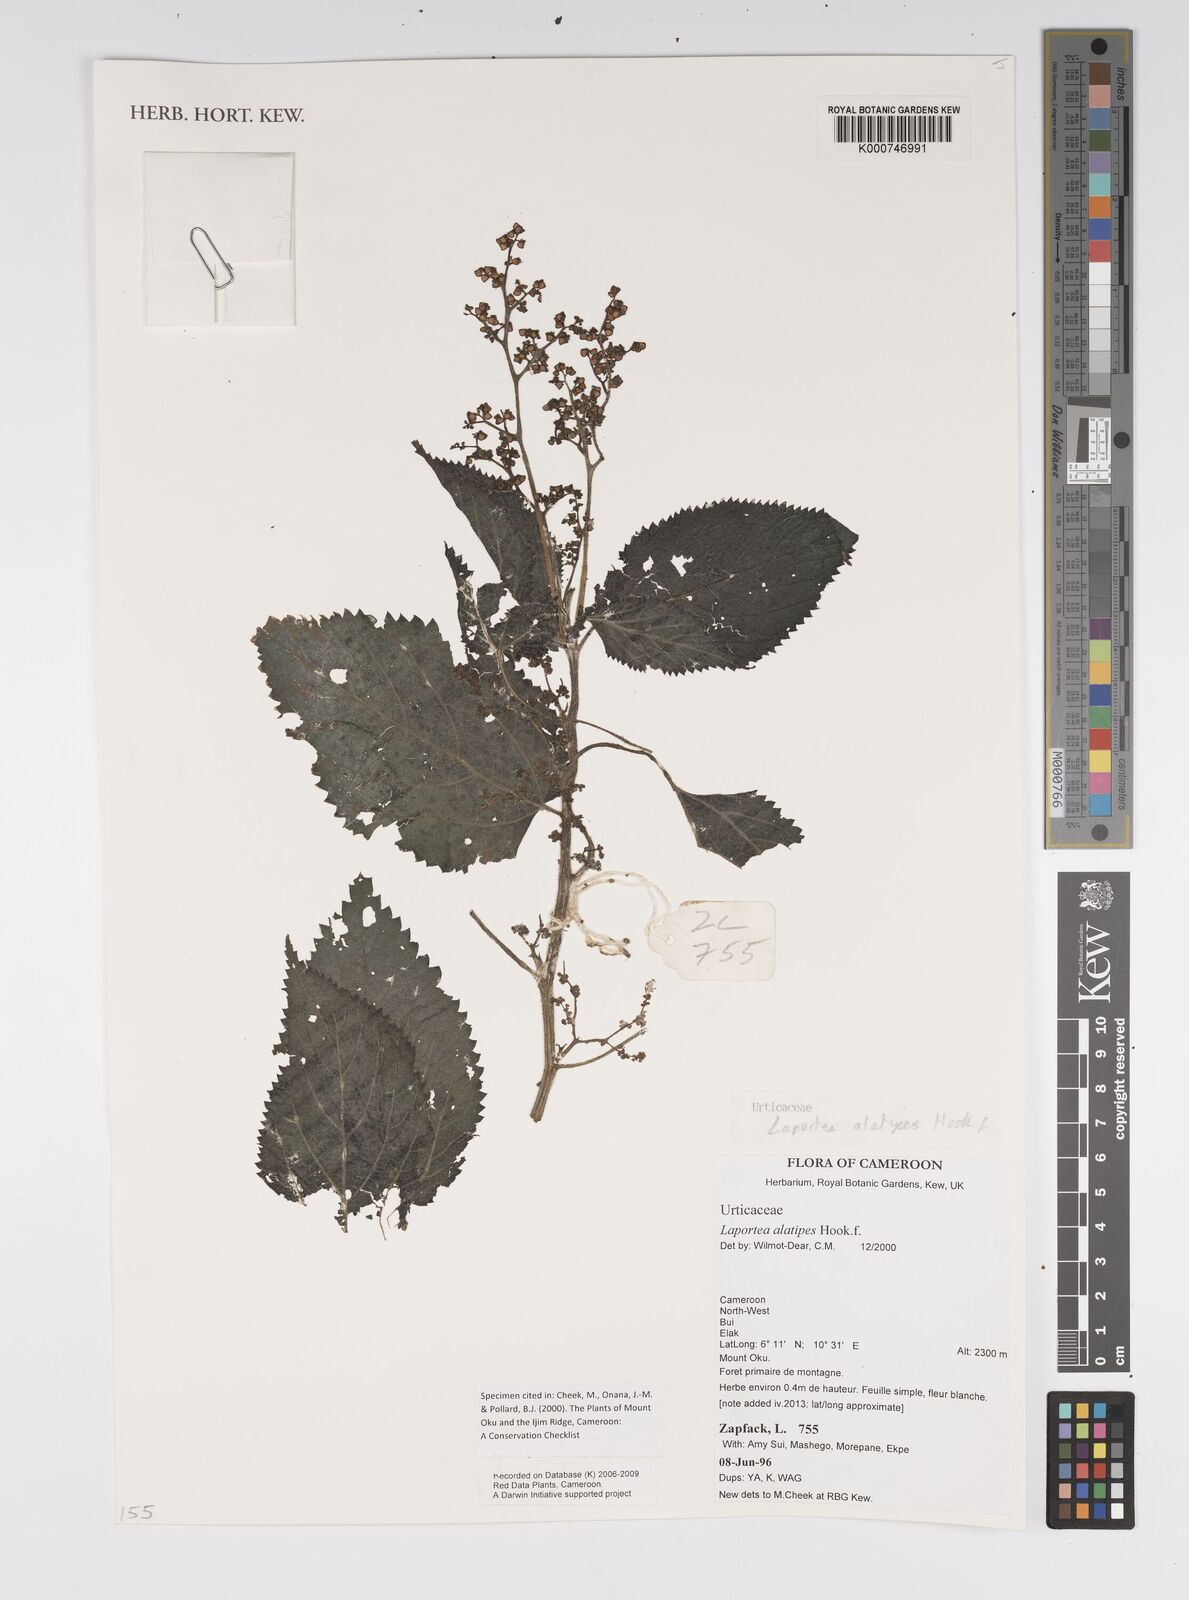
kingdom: Plantae
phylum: Tracheophyta
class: Magnoliopsida
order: Rosales
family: Urticaceae
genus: Laportea
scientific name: Laportea alatipes
